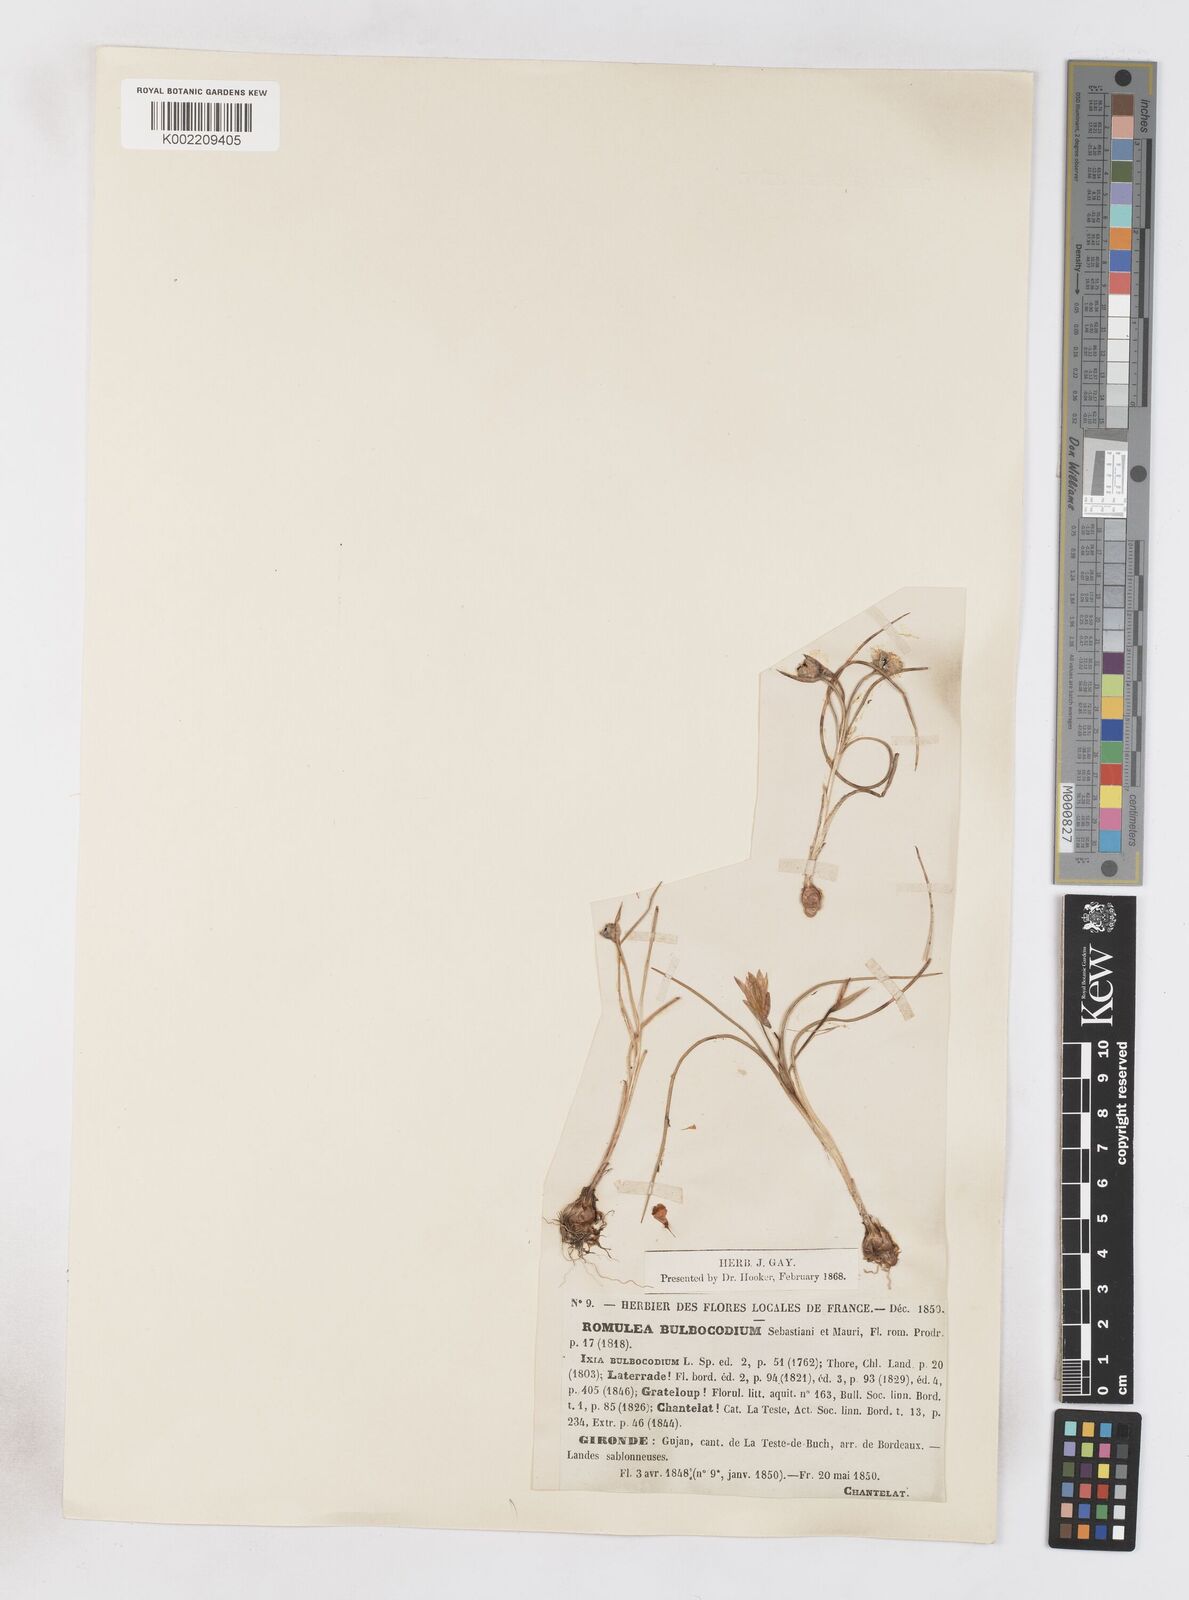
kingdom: Plantae
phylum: Tracheophyta
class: Liliopsida
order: Asparagales
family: Iridaceae
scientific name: Iridaceae
